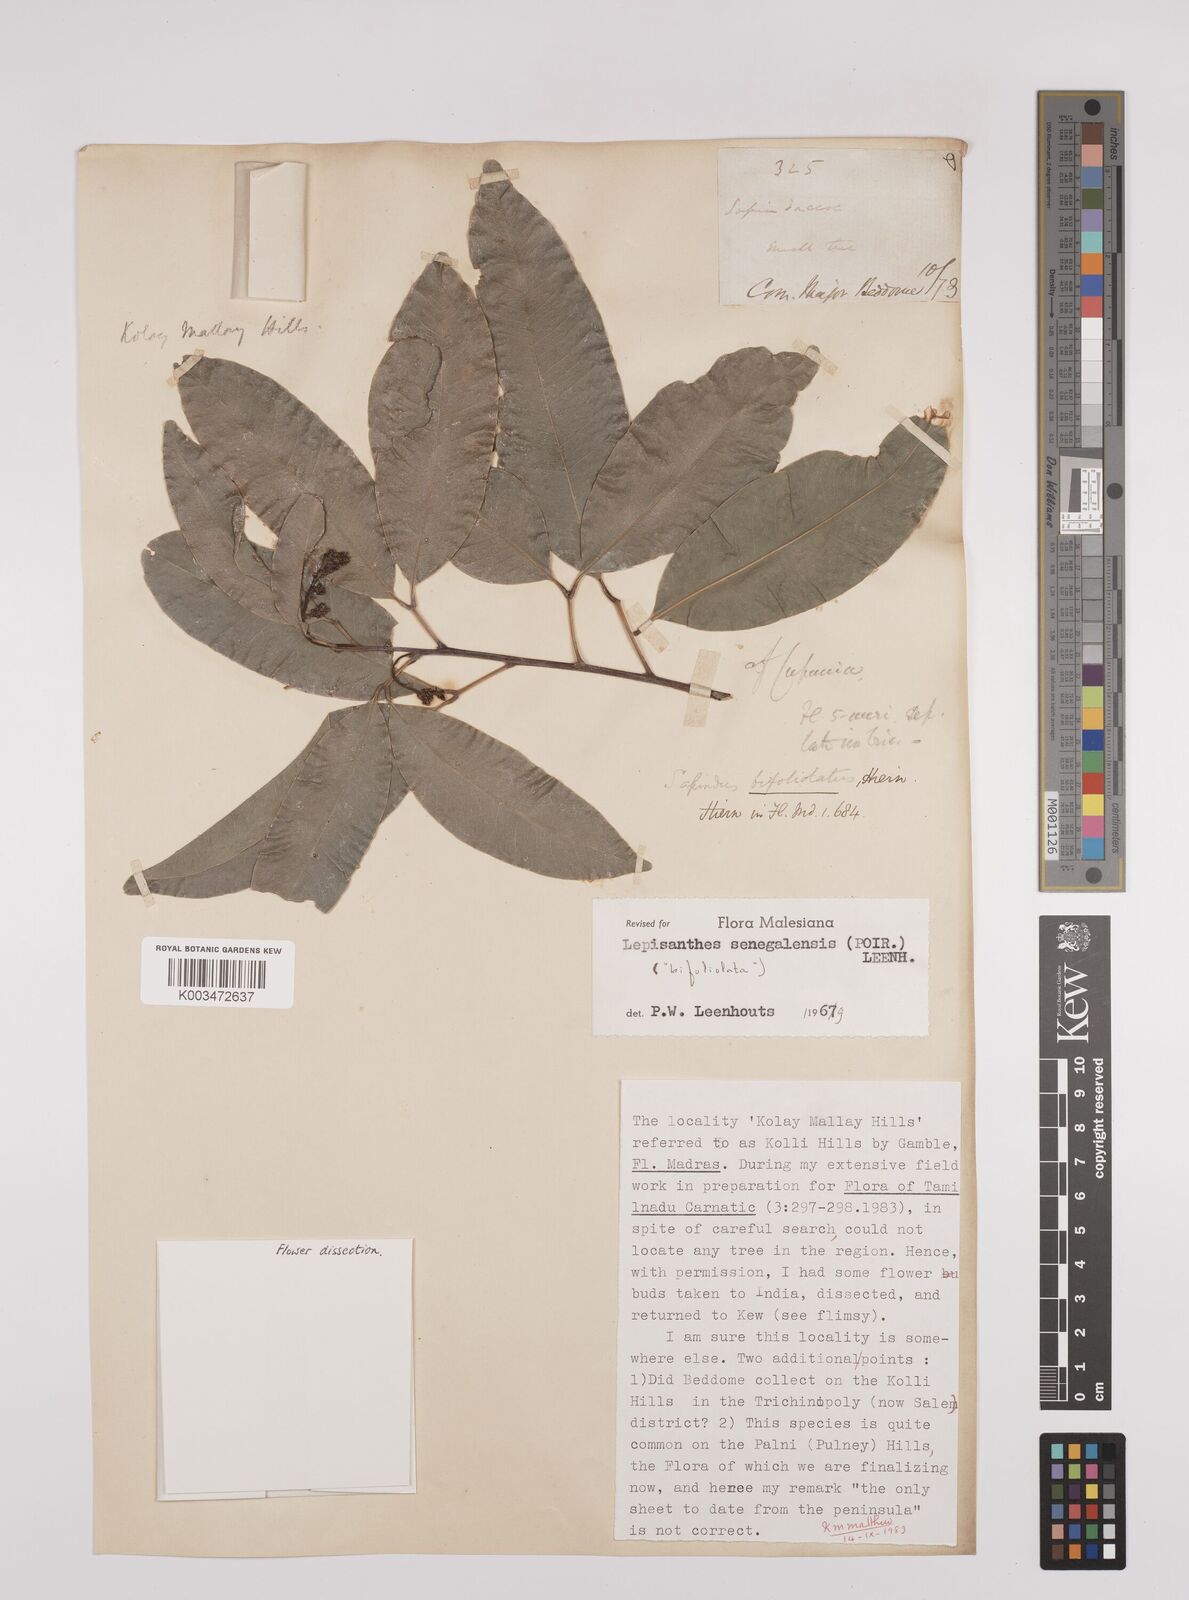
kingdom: Plantae
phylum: Tracheophyta
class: Magnoliopsida
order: Sapindales
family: Sapindaceae
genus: Lepisanthes
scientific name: Lepisanthes senegalensis
